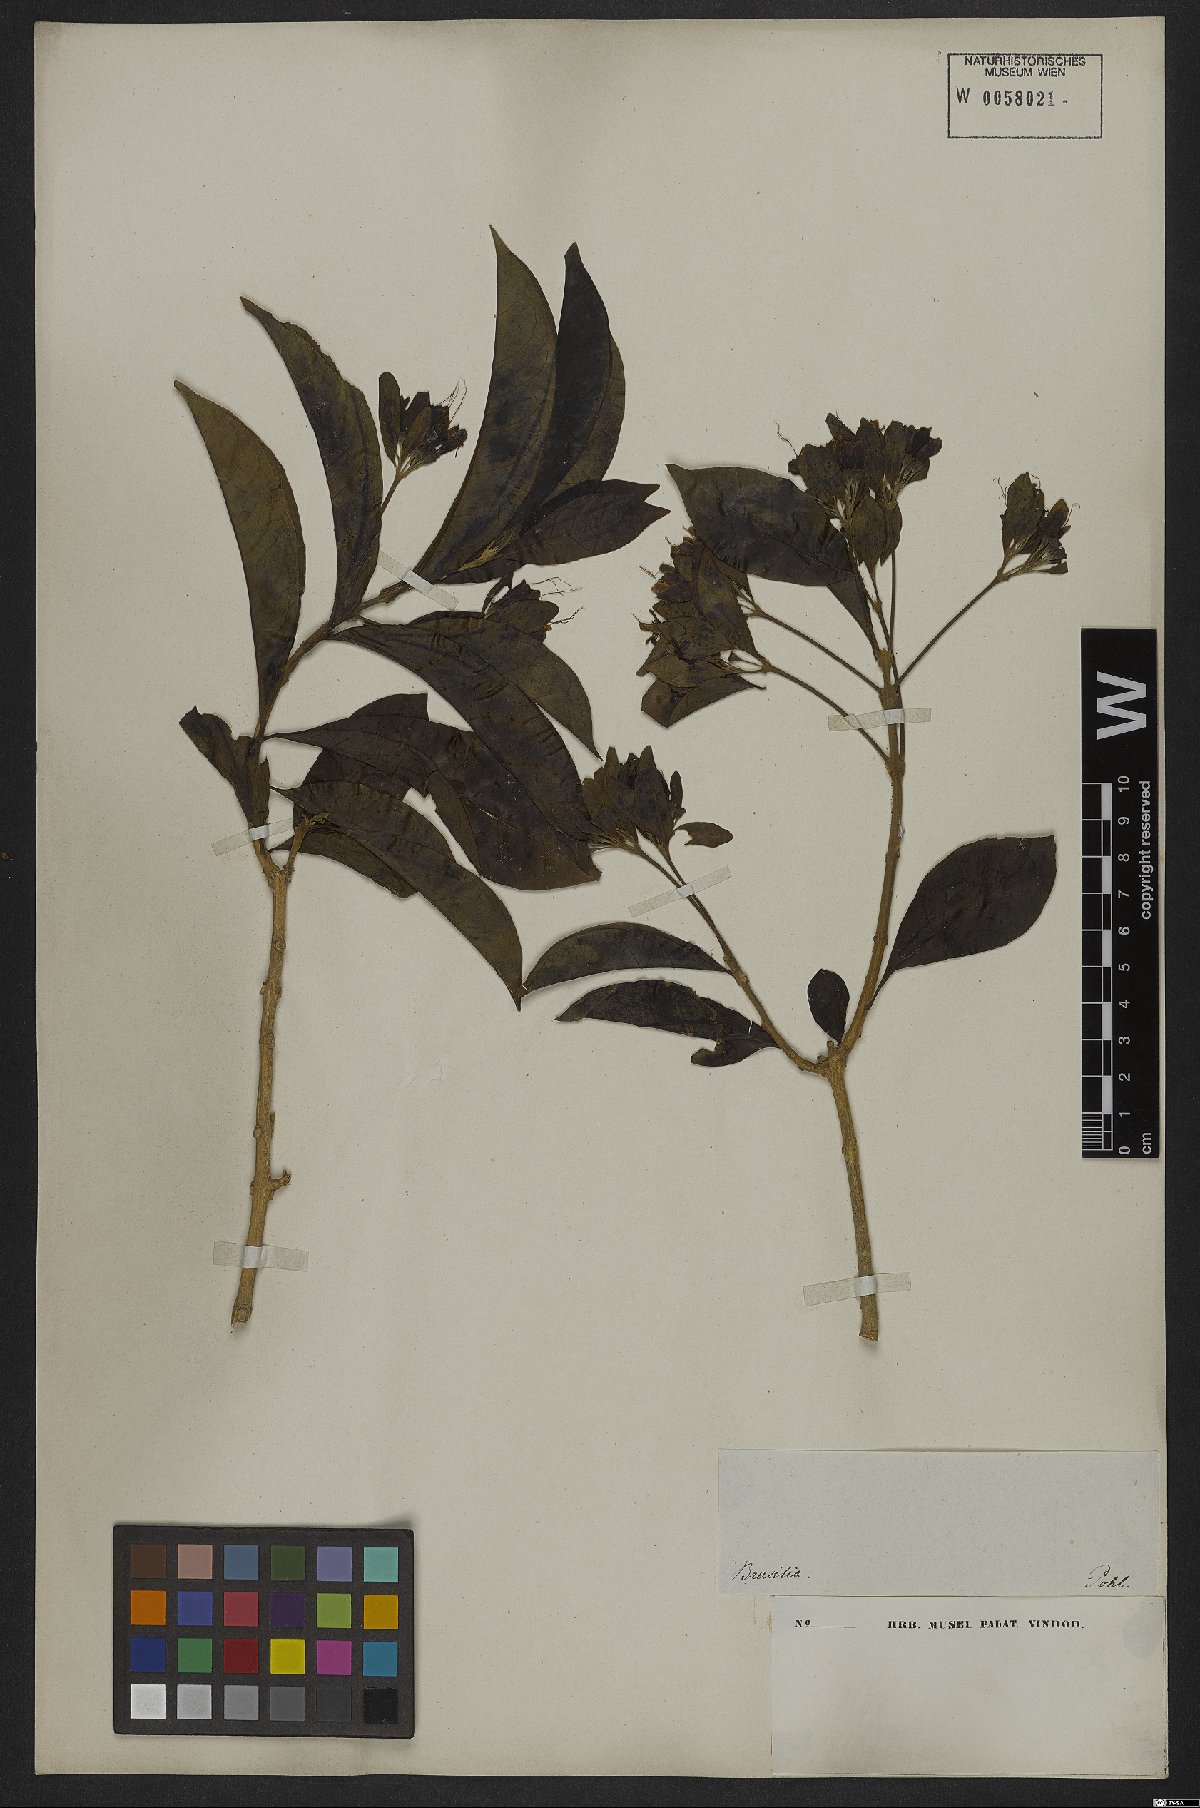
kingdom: Plantae
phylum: Tracheophyta
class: Magnoliopsida
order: Boraginales
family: Cordiaceae
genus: Cordia
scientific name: Cordia alliodora
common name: Spanish elm
